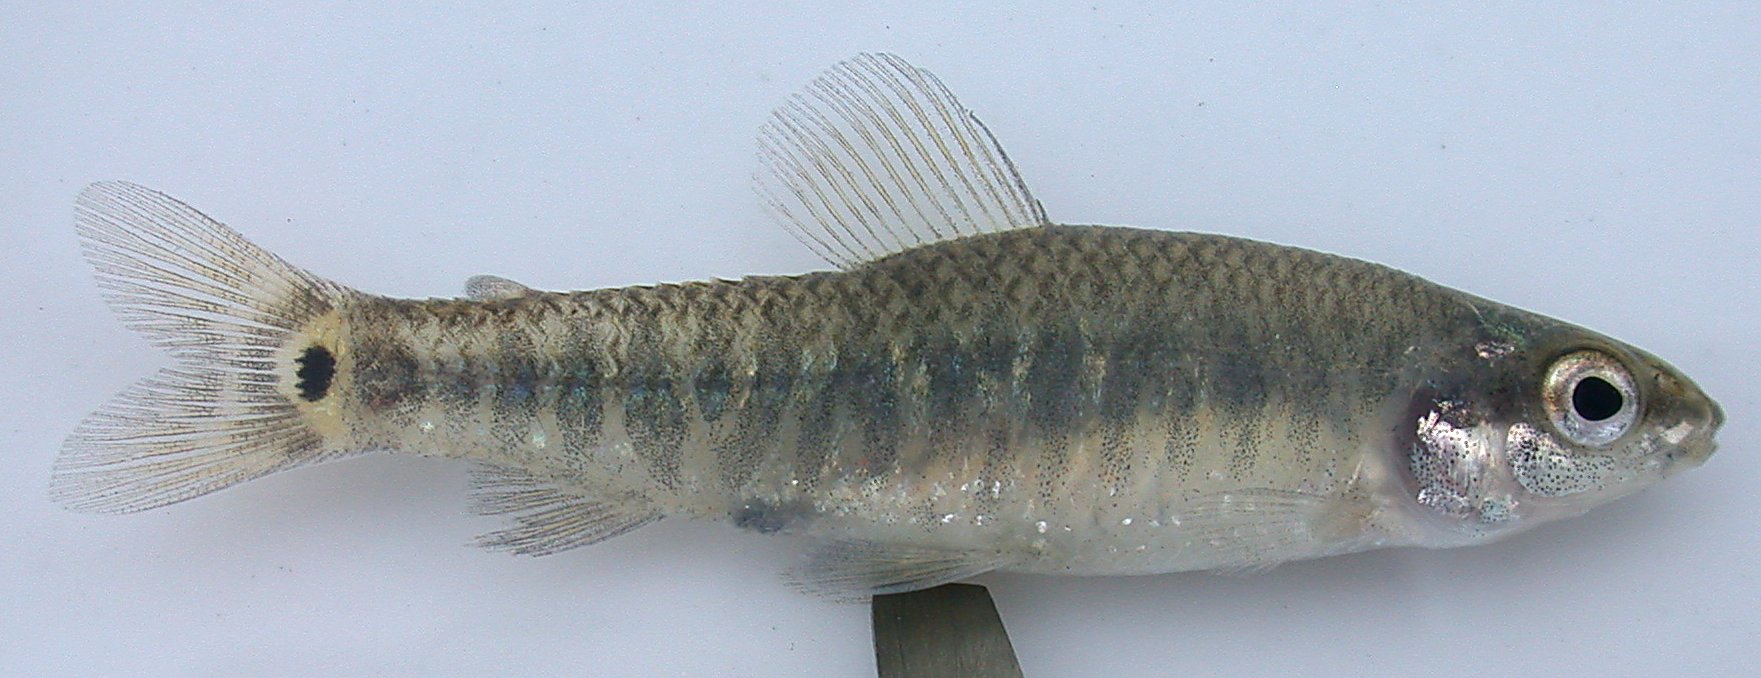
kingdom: Animalia
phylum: Chordata
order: Characiformes
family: Distichodontidae
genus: Nannocharax
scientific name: Nannocharax wittei
